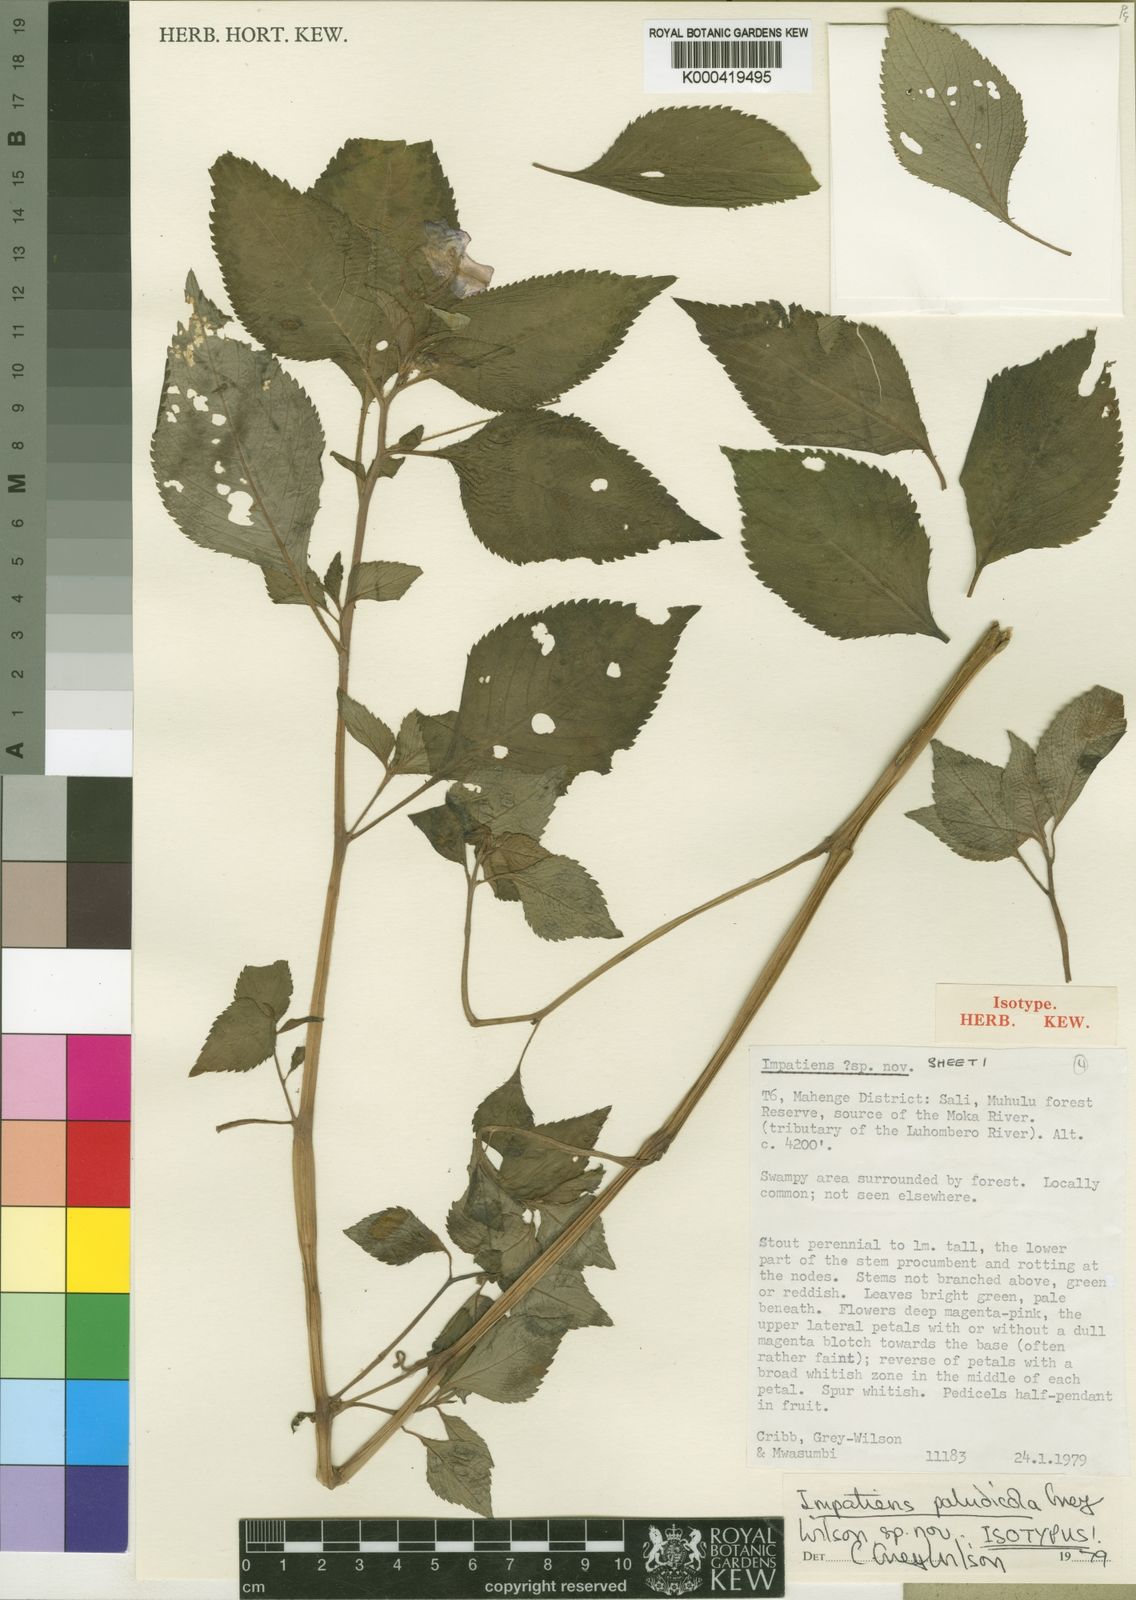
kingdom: Plantae
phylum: Tracheophyta
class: Magnoliopsida
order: Ericales
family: Balsaminaceae
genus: Impatiens
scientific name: Impatiens paludicola
